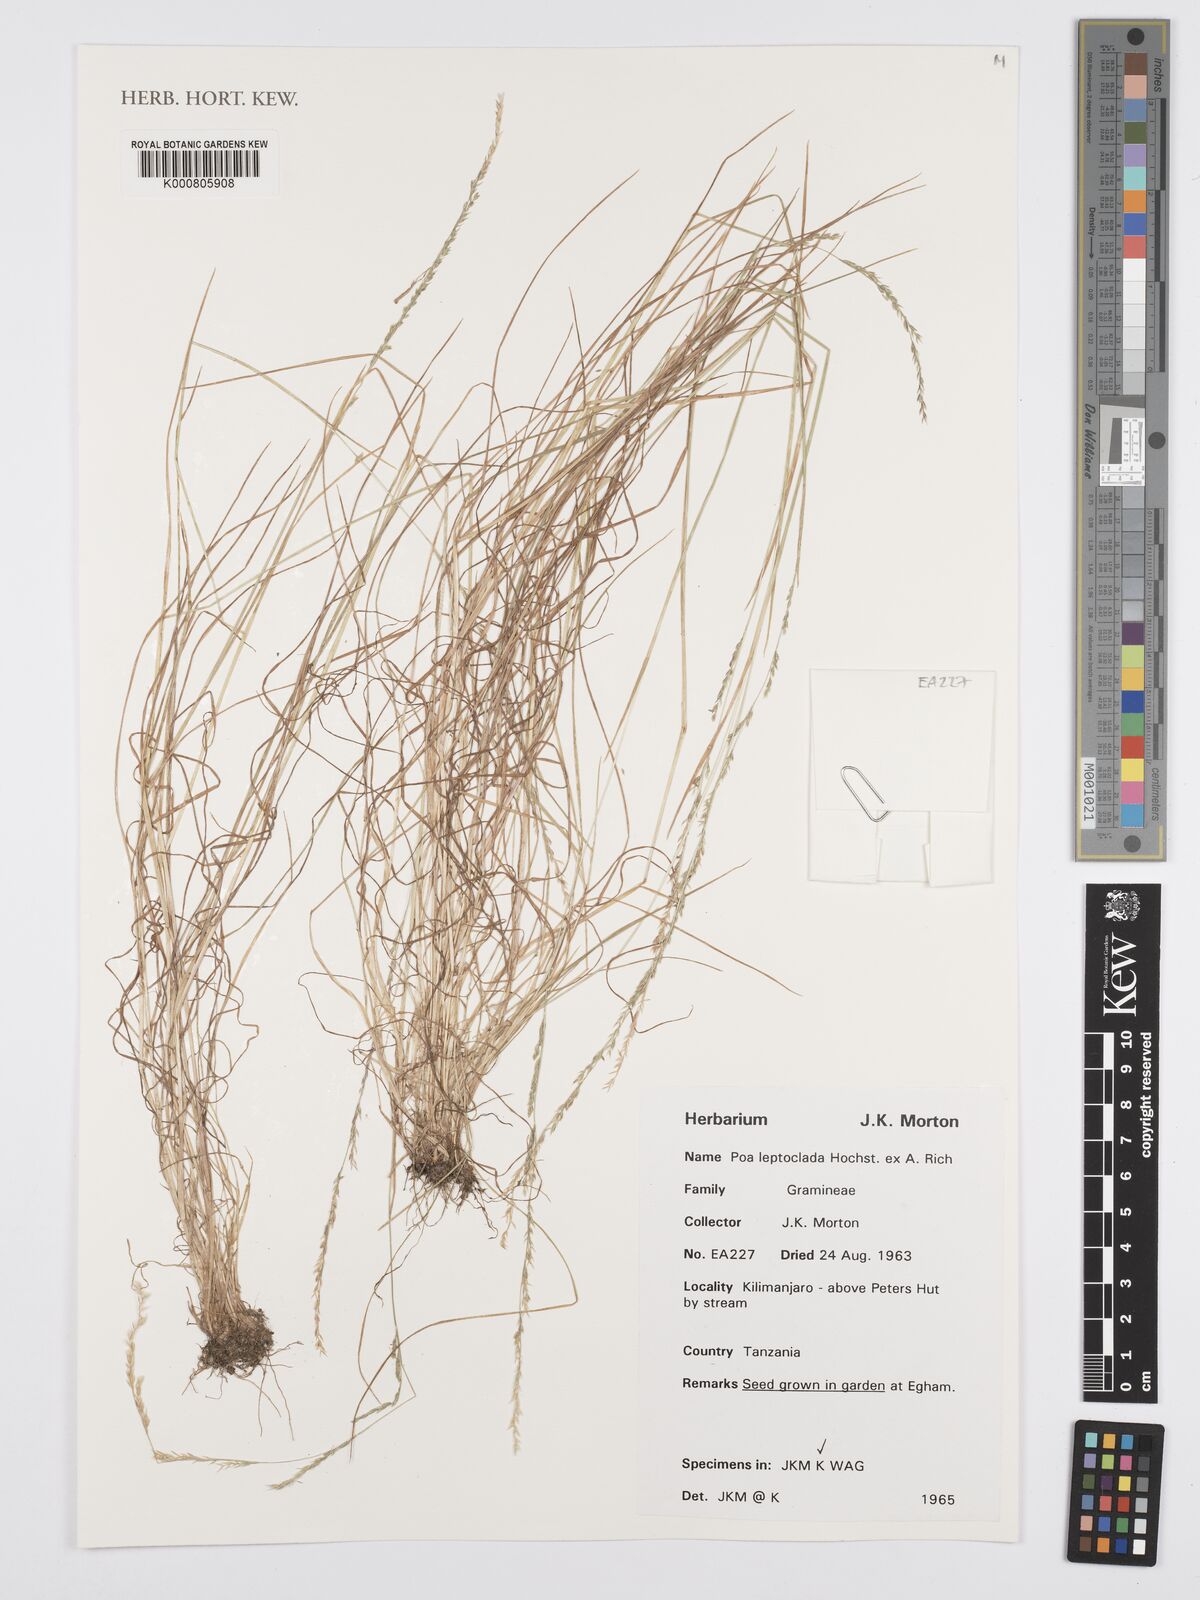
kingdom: Plantae
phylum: Tracheophyta
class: Liliopsida
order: Poales
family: Poaceae
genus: Poa
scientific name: Poa leptoclada
